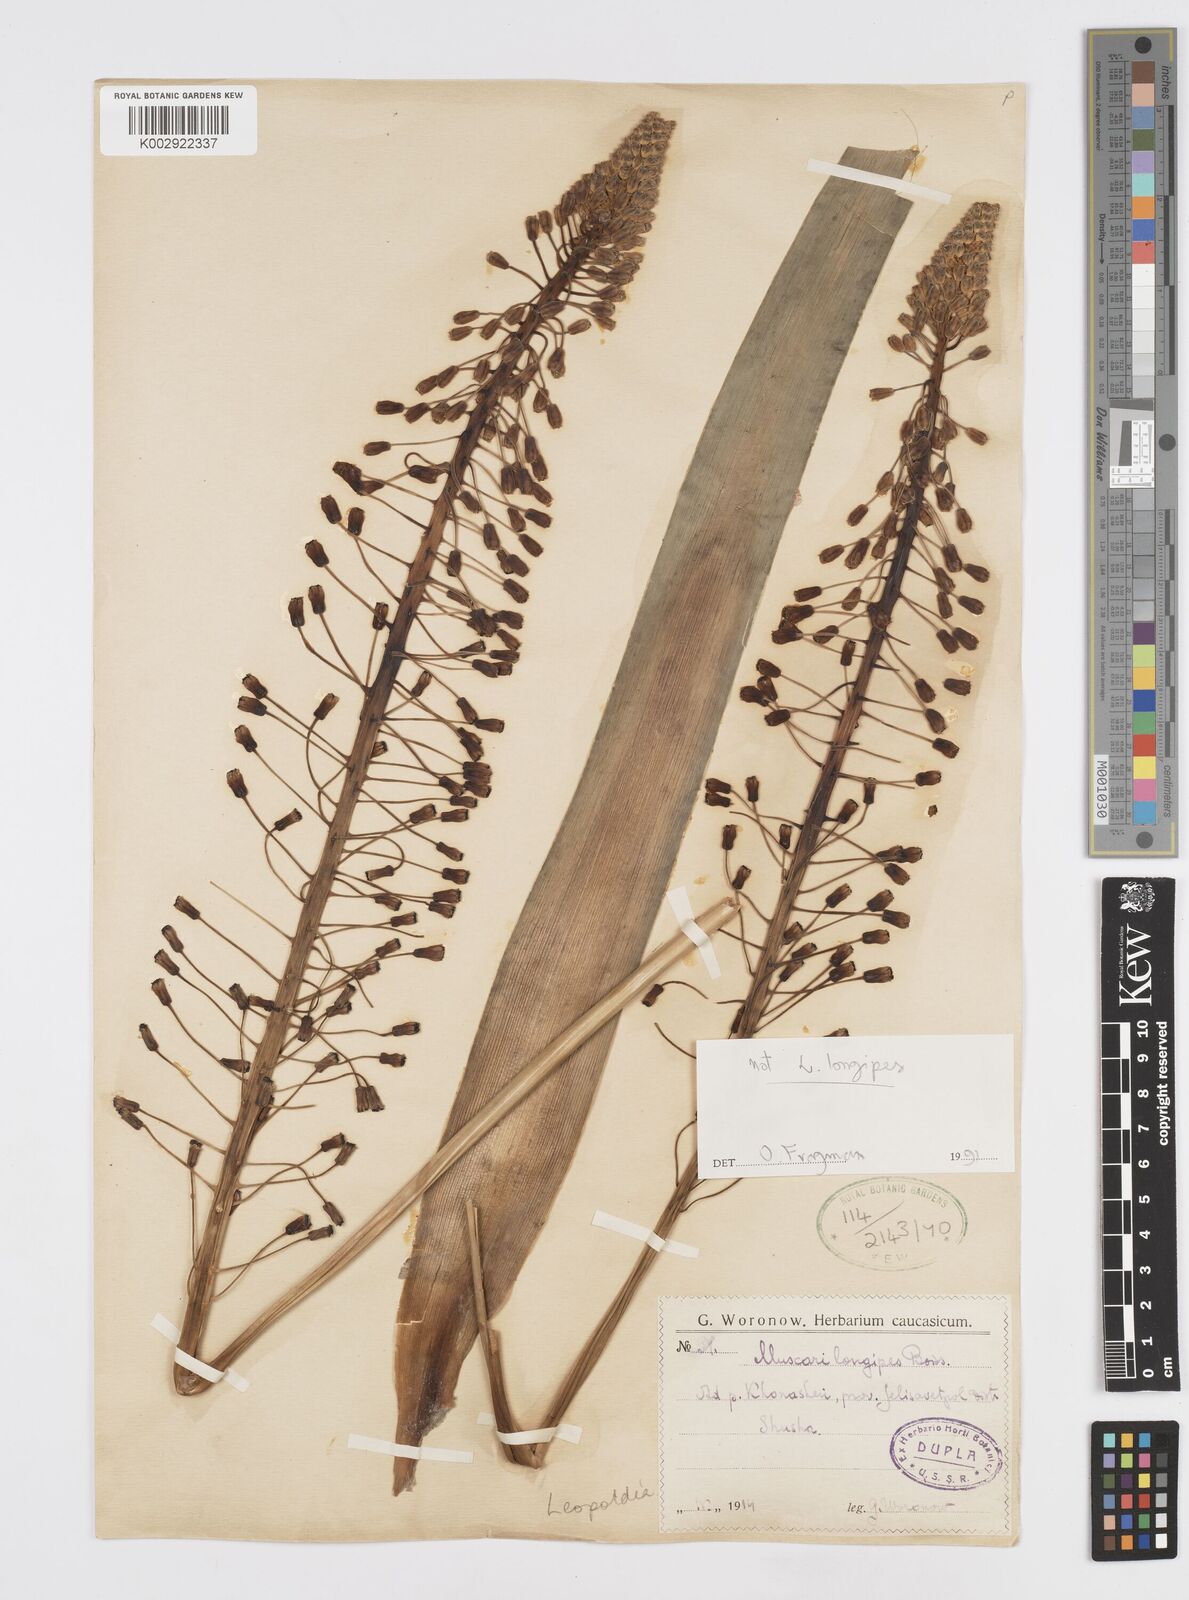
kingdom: Plantae
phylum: Tracheophyta
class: Liliopsida
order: Asparagales
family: Asparagaceae
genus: Muscari
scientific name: Muscari longipes
